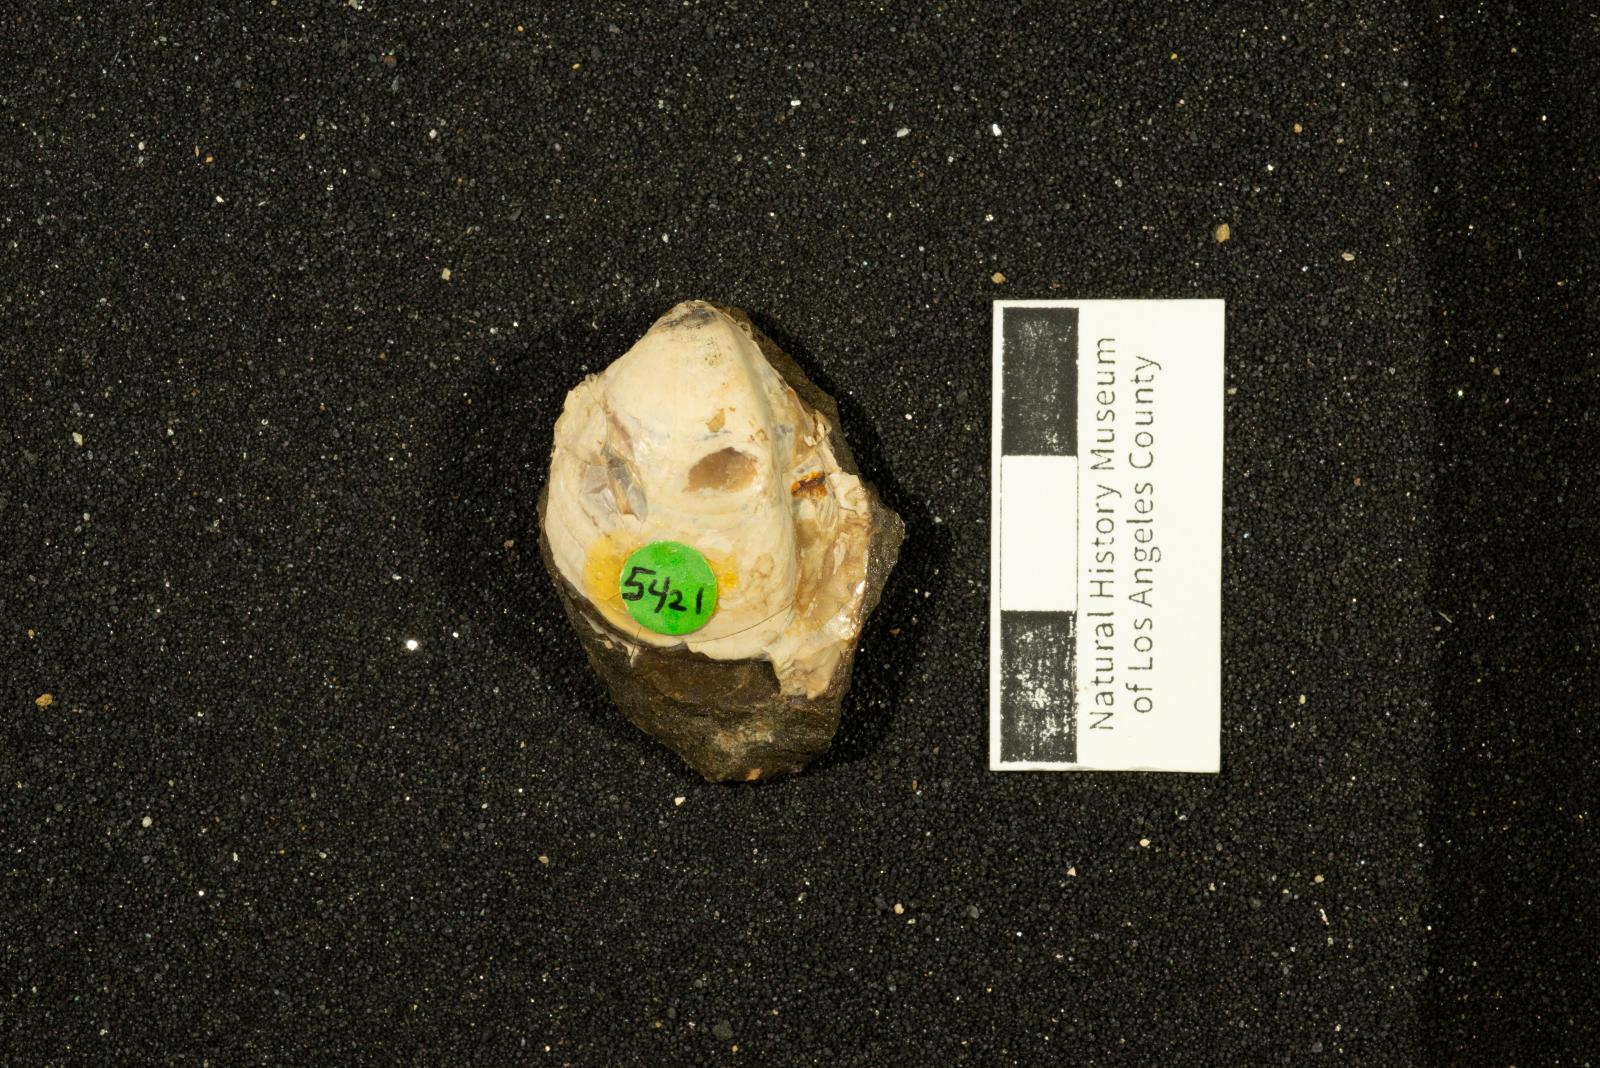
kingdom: Animalia
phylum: Mollusca
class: Bivalvia
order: Carditida
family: Astartidae
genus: Opis
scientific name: Opis popenoei
